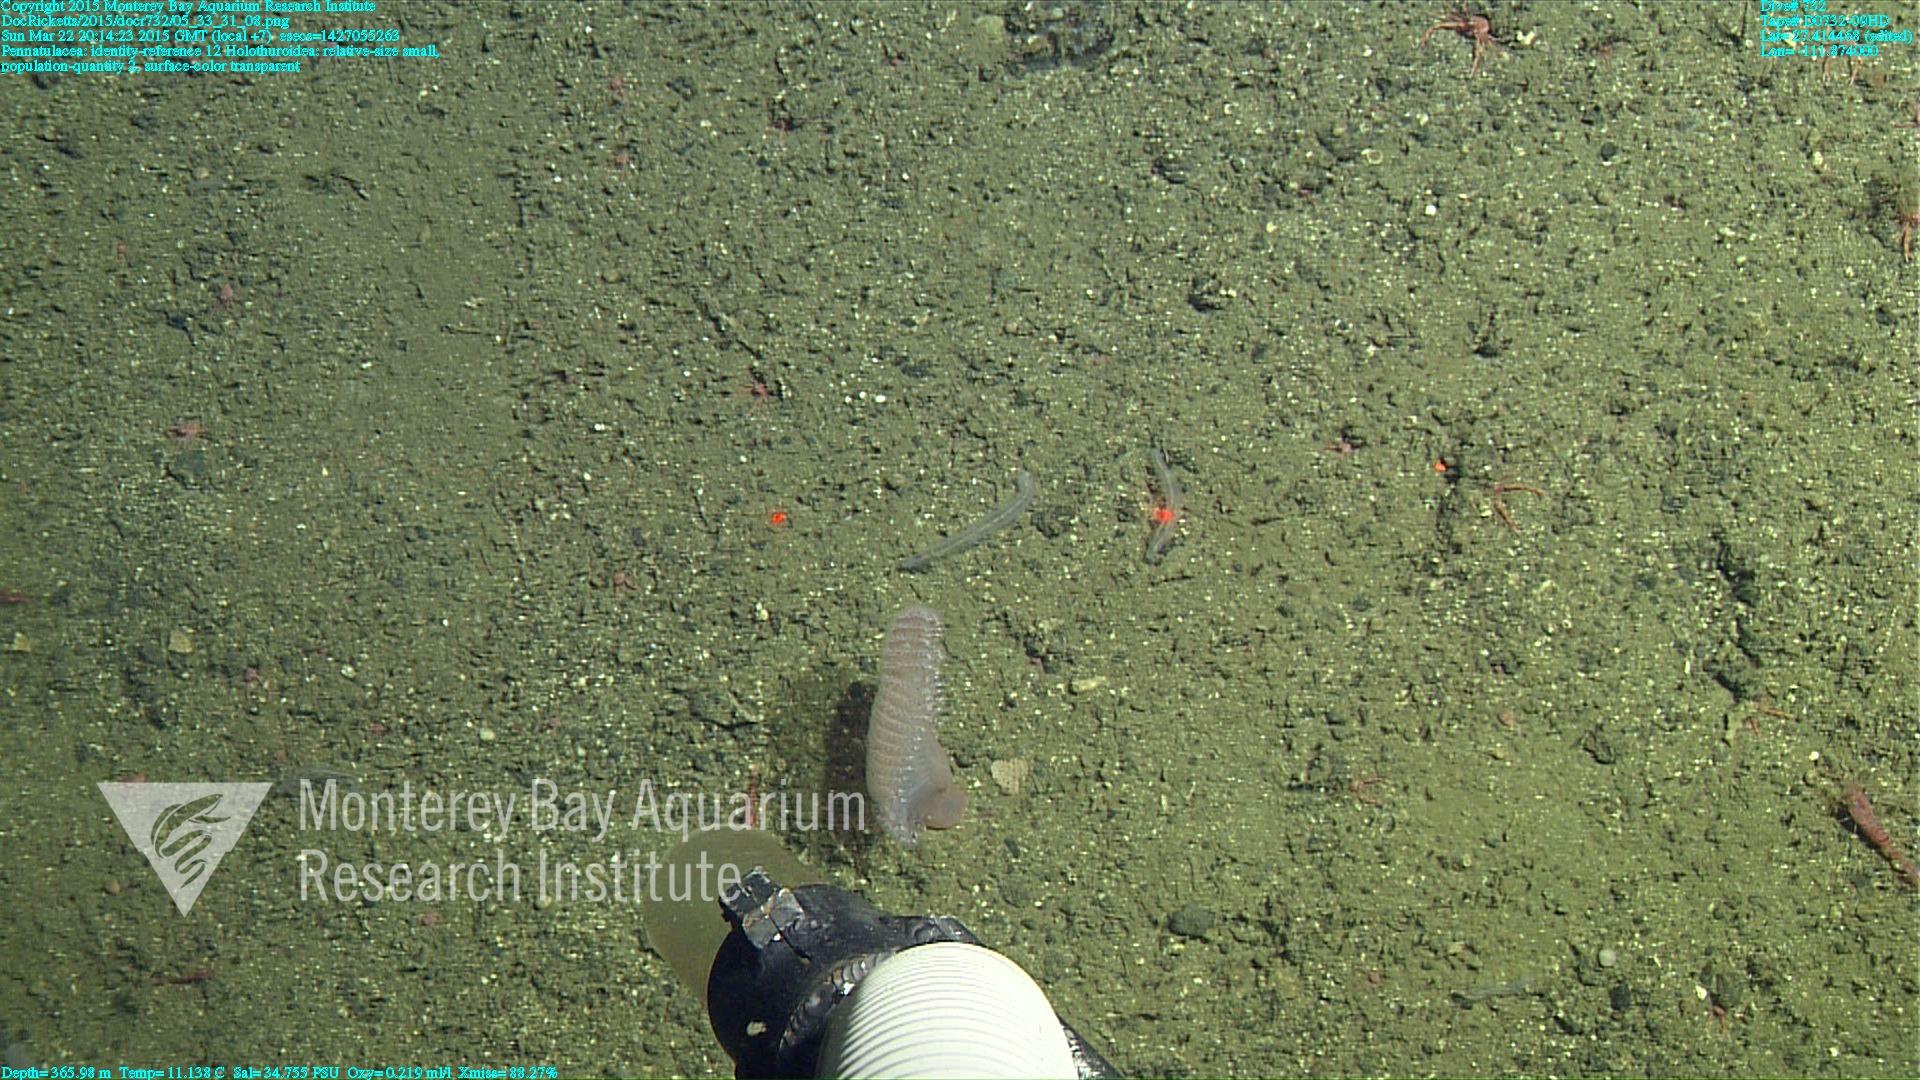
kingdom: Animalia
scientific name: Animalia
